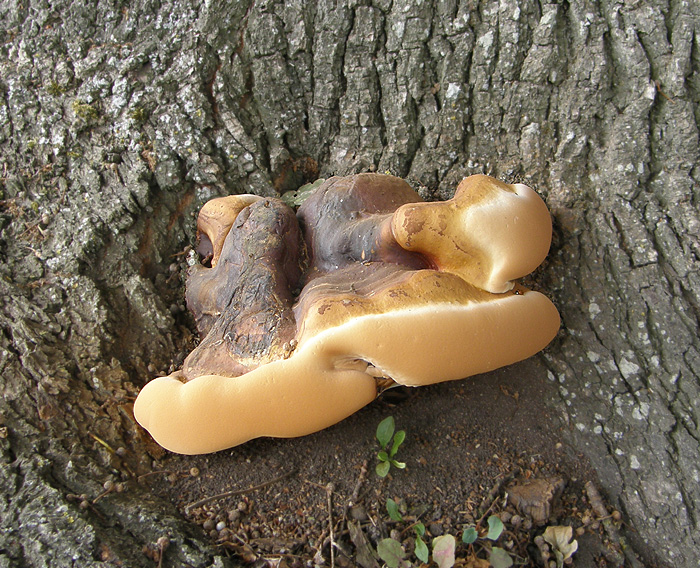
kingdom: Fungi
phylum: Basidiomycota
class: Agaricomycetes
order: Polyporales
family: Polyporaceae
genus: Ganoderma
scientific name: Ganoderma resinaceum
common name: gyldenbrun lakporesvamp
